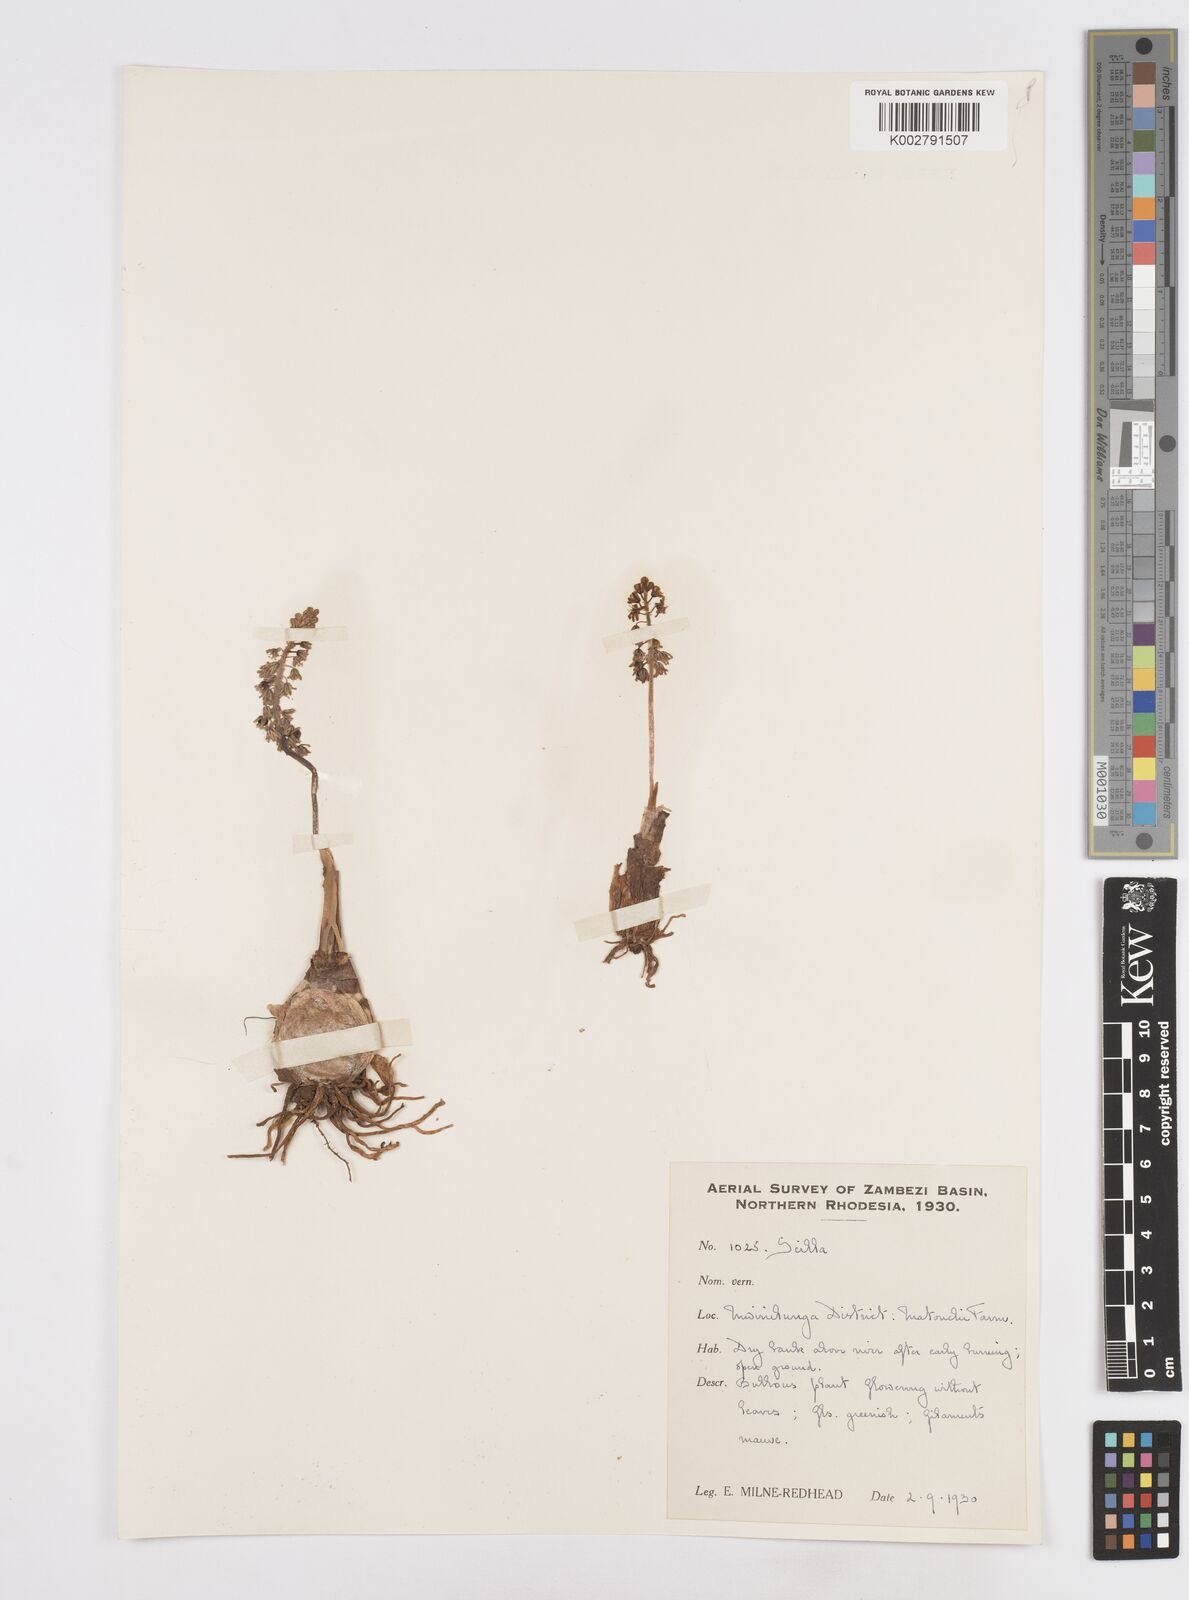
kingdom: Plantae
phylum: Tracheophyta
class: Liliopsida
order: Asparagales
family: Asparagaceae
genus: Scilla
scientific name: Scilla
